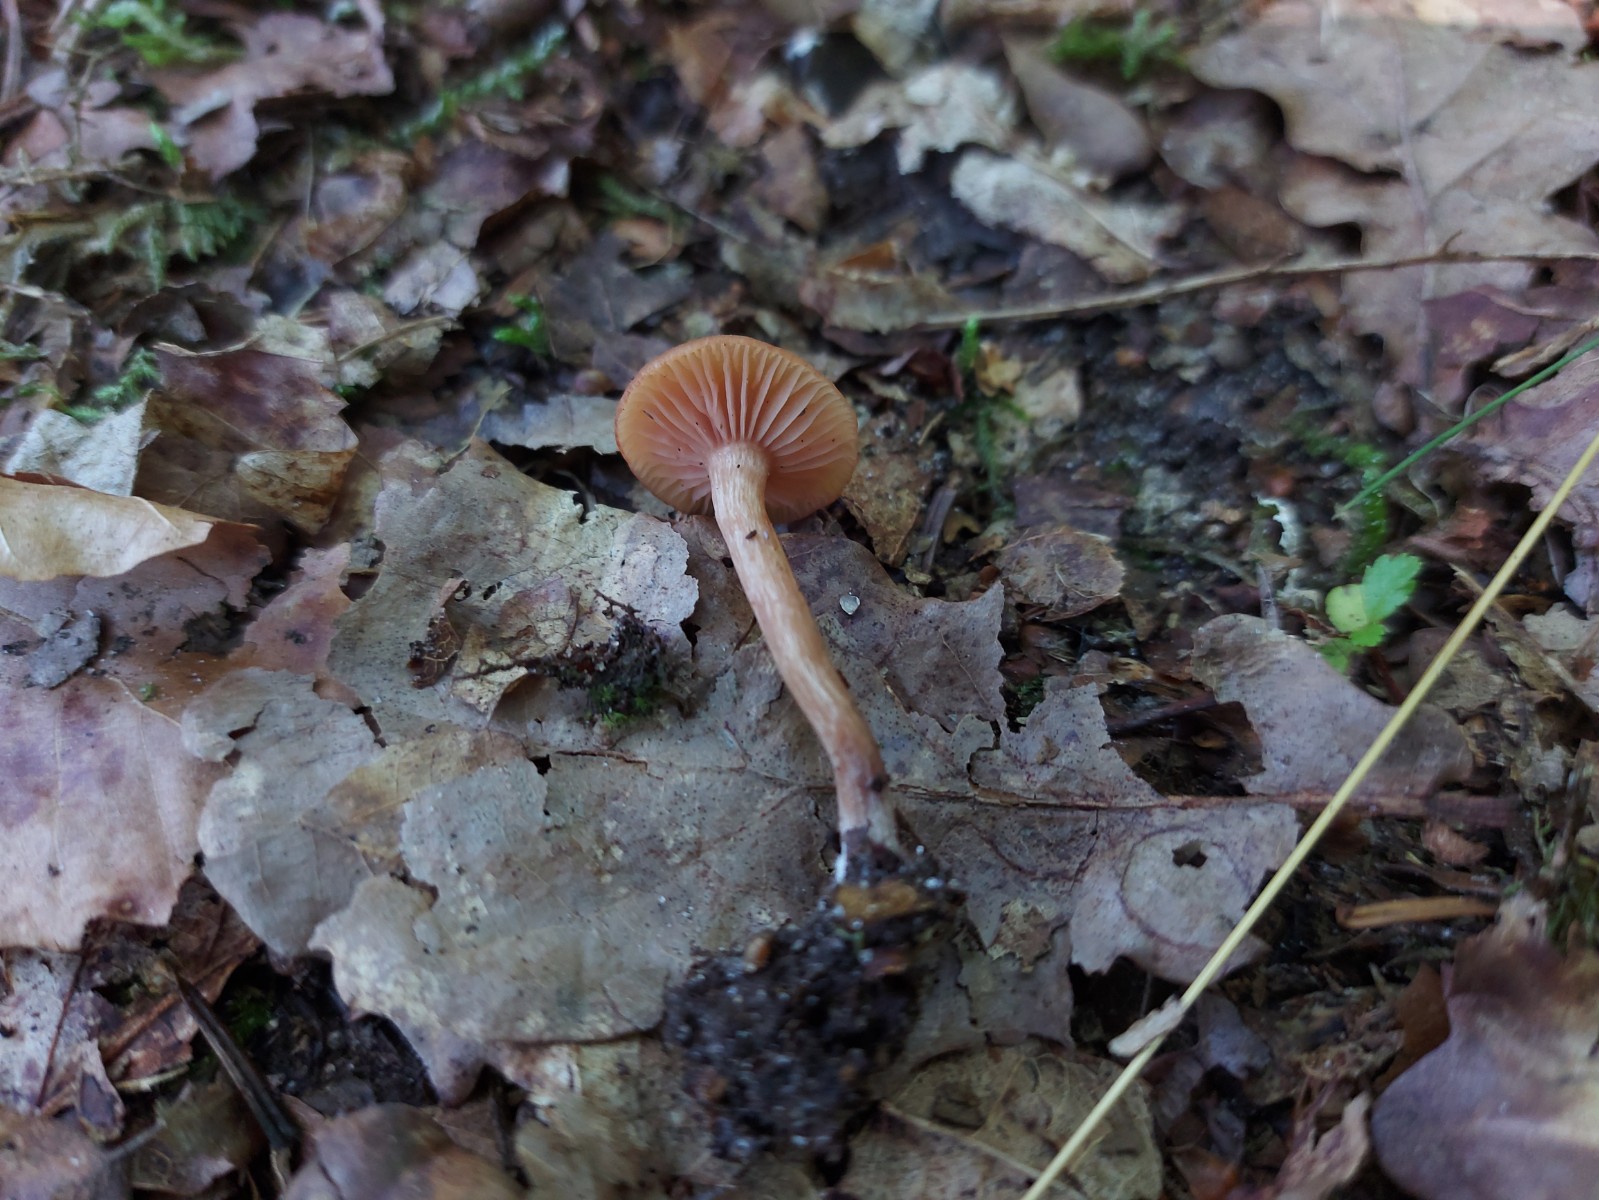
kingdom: Fungi
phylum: Basidiomycota
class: Agaricomycetes
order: Agaricales
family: Hydnangiaceae
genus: Laccaria
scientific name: Laccaria laccata
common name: rød ametysthat
